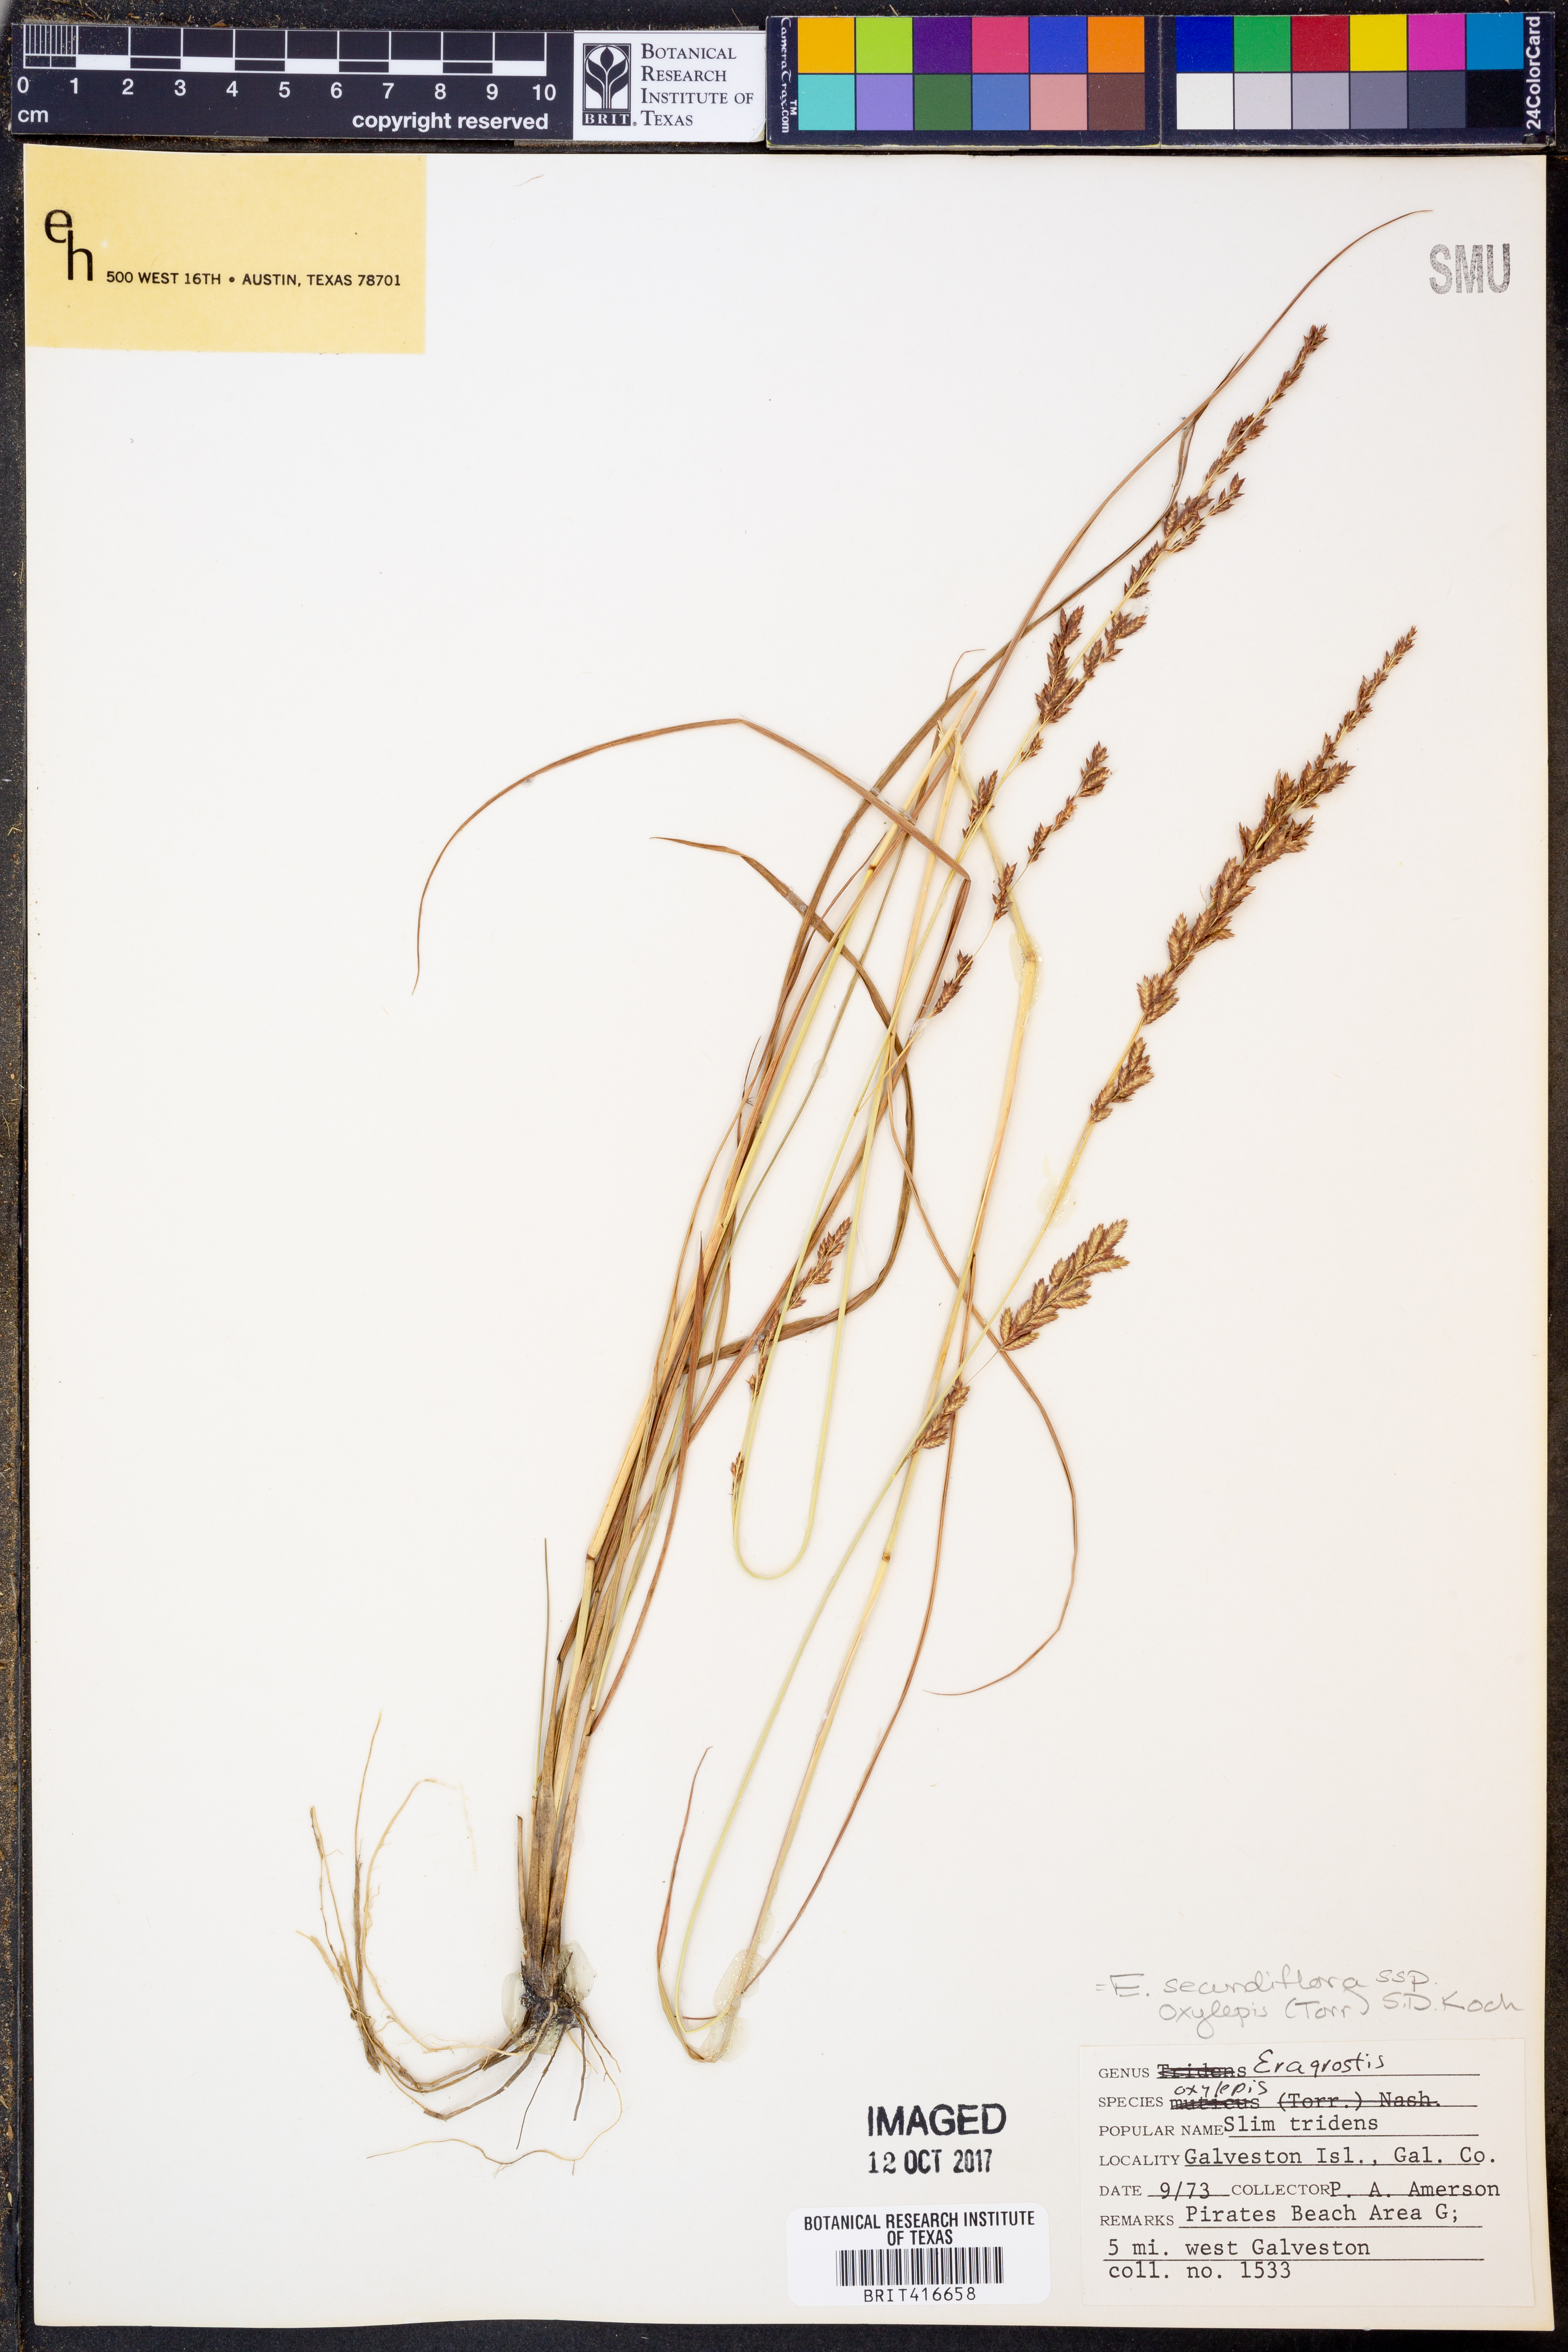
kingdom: Plantae
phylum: Tracheophyta
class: Liliopsida
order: Poales
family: Poaceae
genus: Eragrostis
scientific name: Eragrostis secundiflora
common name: Red love grass
